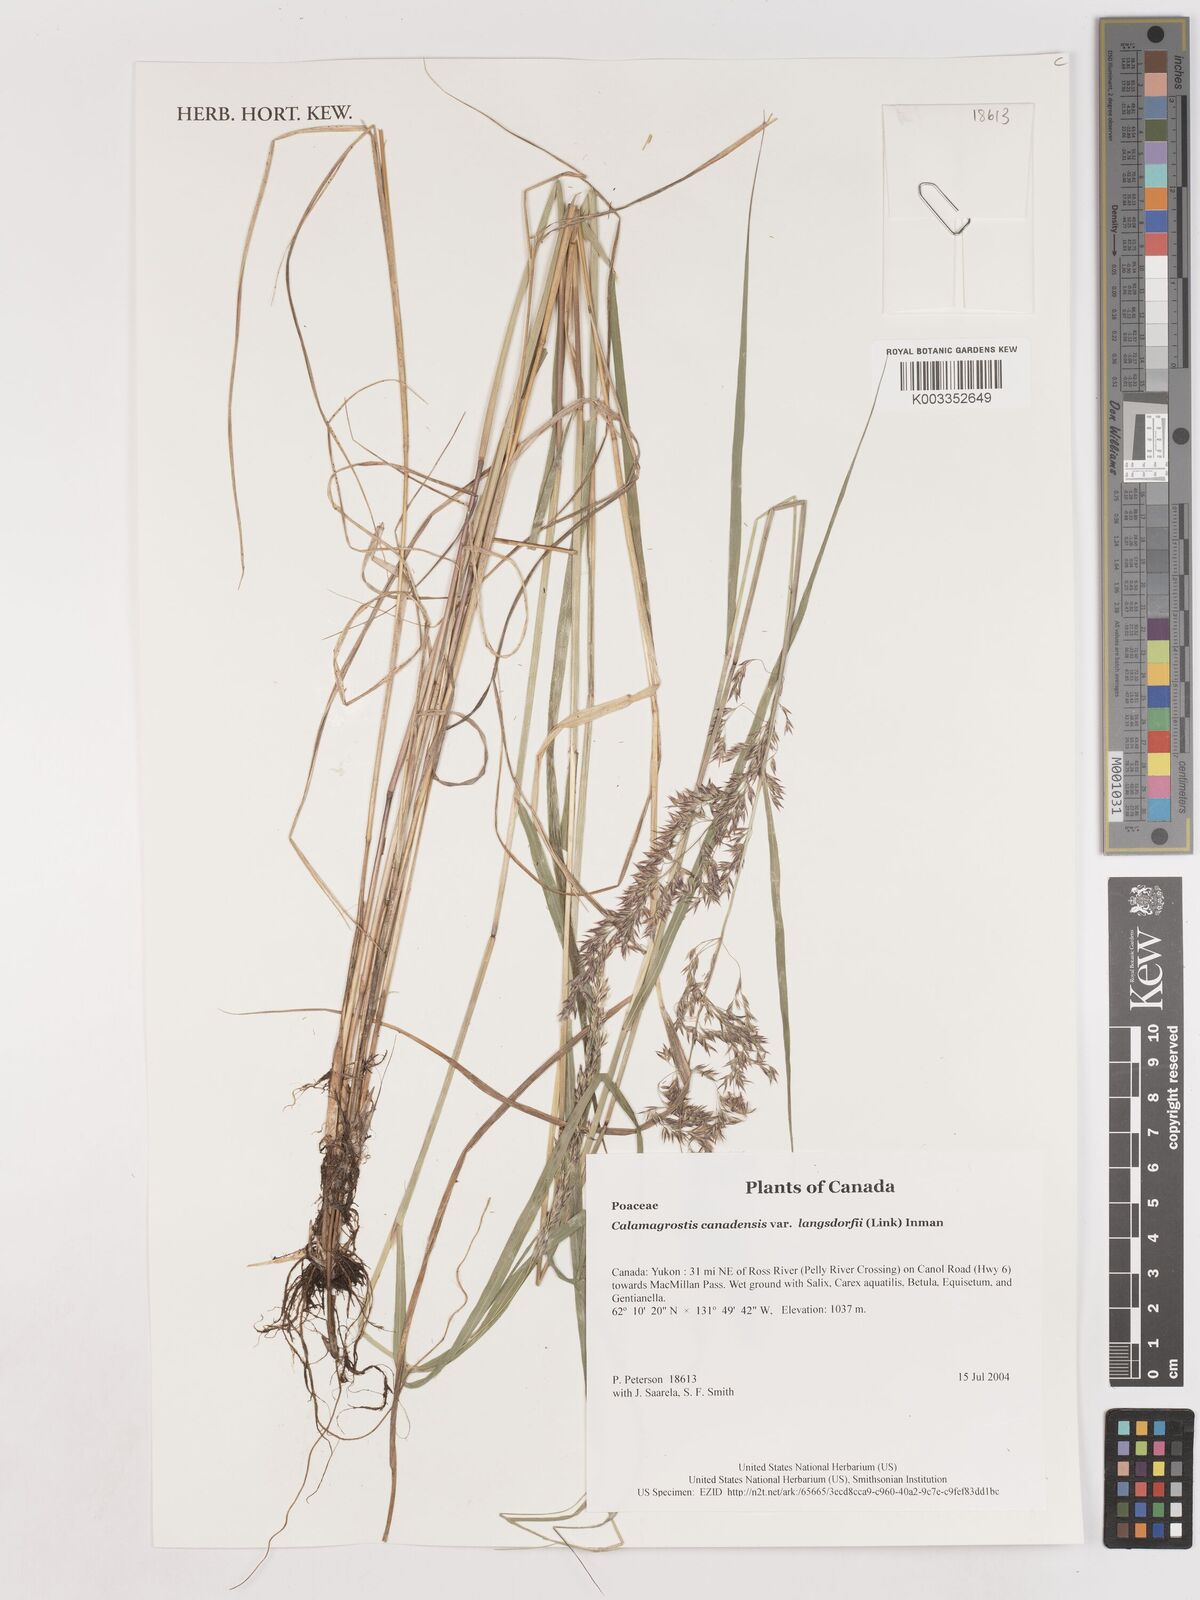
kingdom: Plantae
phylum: Tracheophyta
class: Liliopsida
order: Poales
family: Poaceae
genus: Calamagrostis
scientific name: Calamagrostis canadensis
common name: Canada bluejoint
